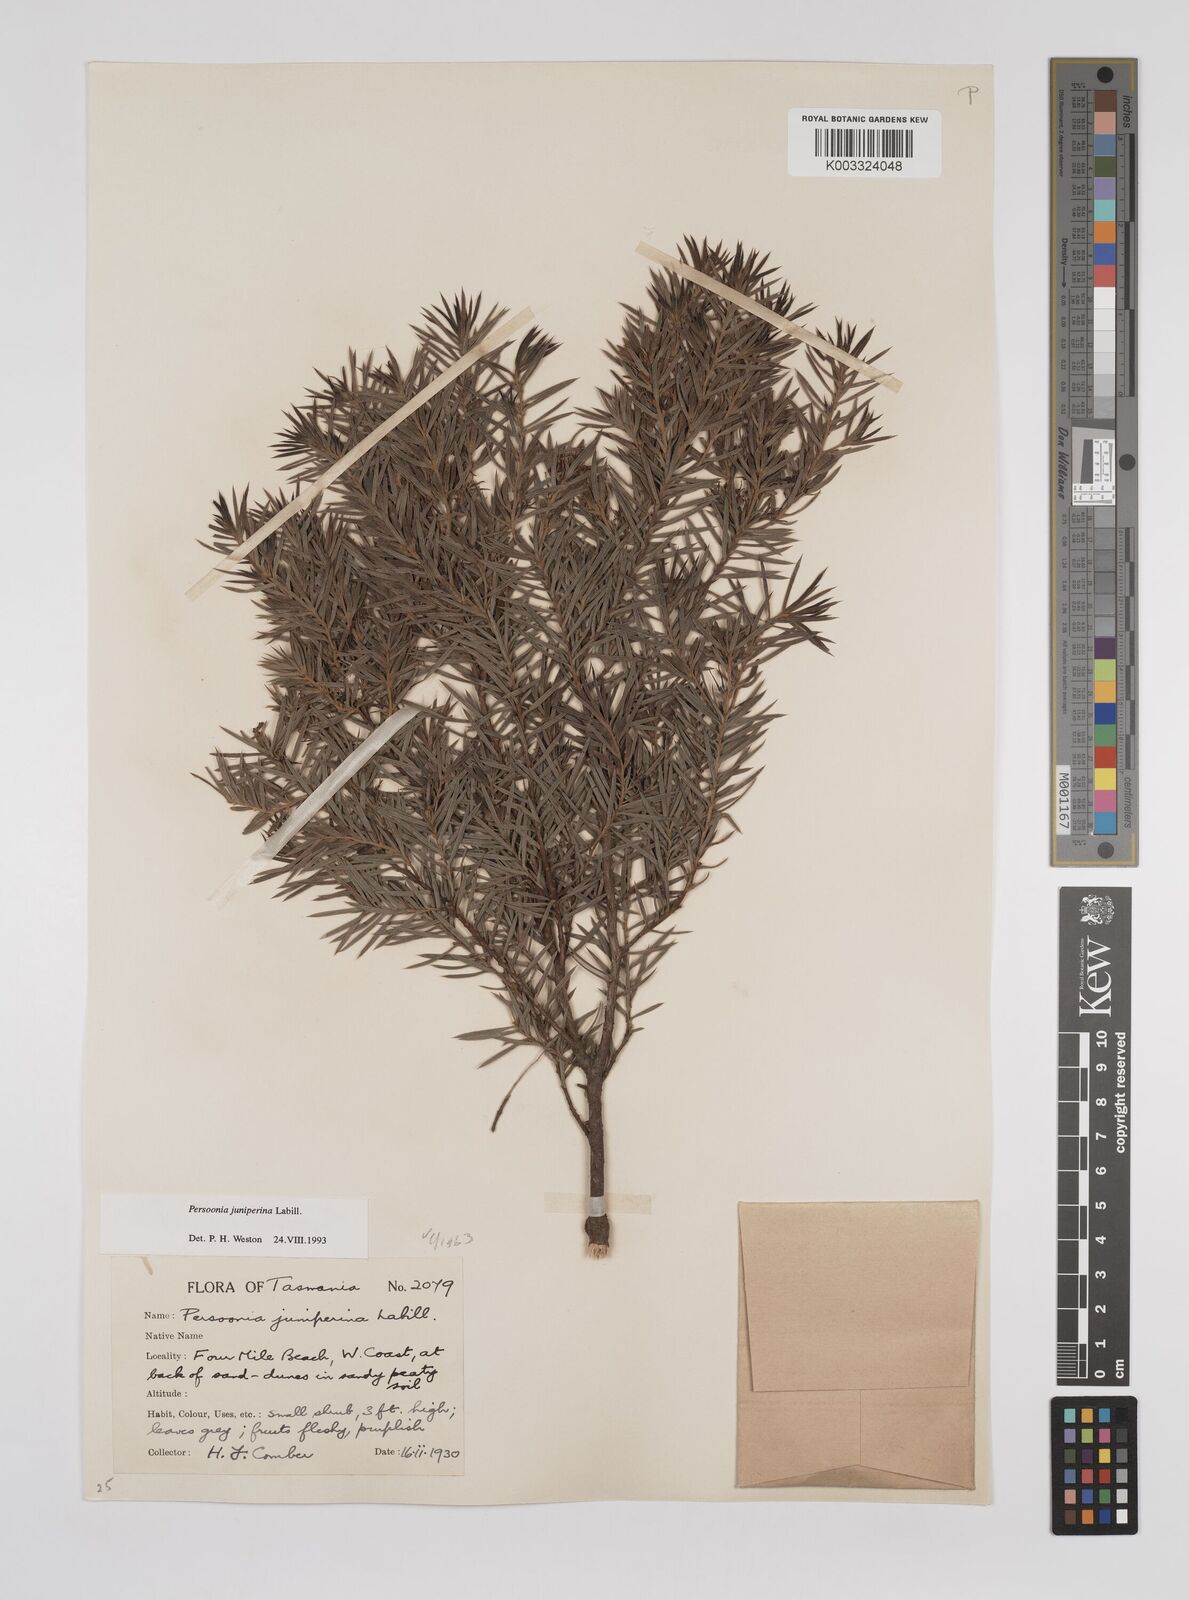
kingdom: Plantae
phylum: Tracheophyta
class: Magnoliopsida
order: Proteales
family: Proteaceae
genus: Persoonia
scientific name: Persoonia juniperina
